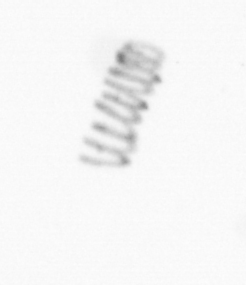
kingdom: Chromista
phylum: Ochrophyta
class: Bacillariophyceae
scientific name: Bacillariophyceae
